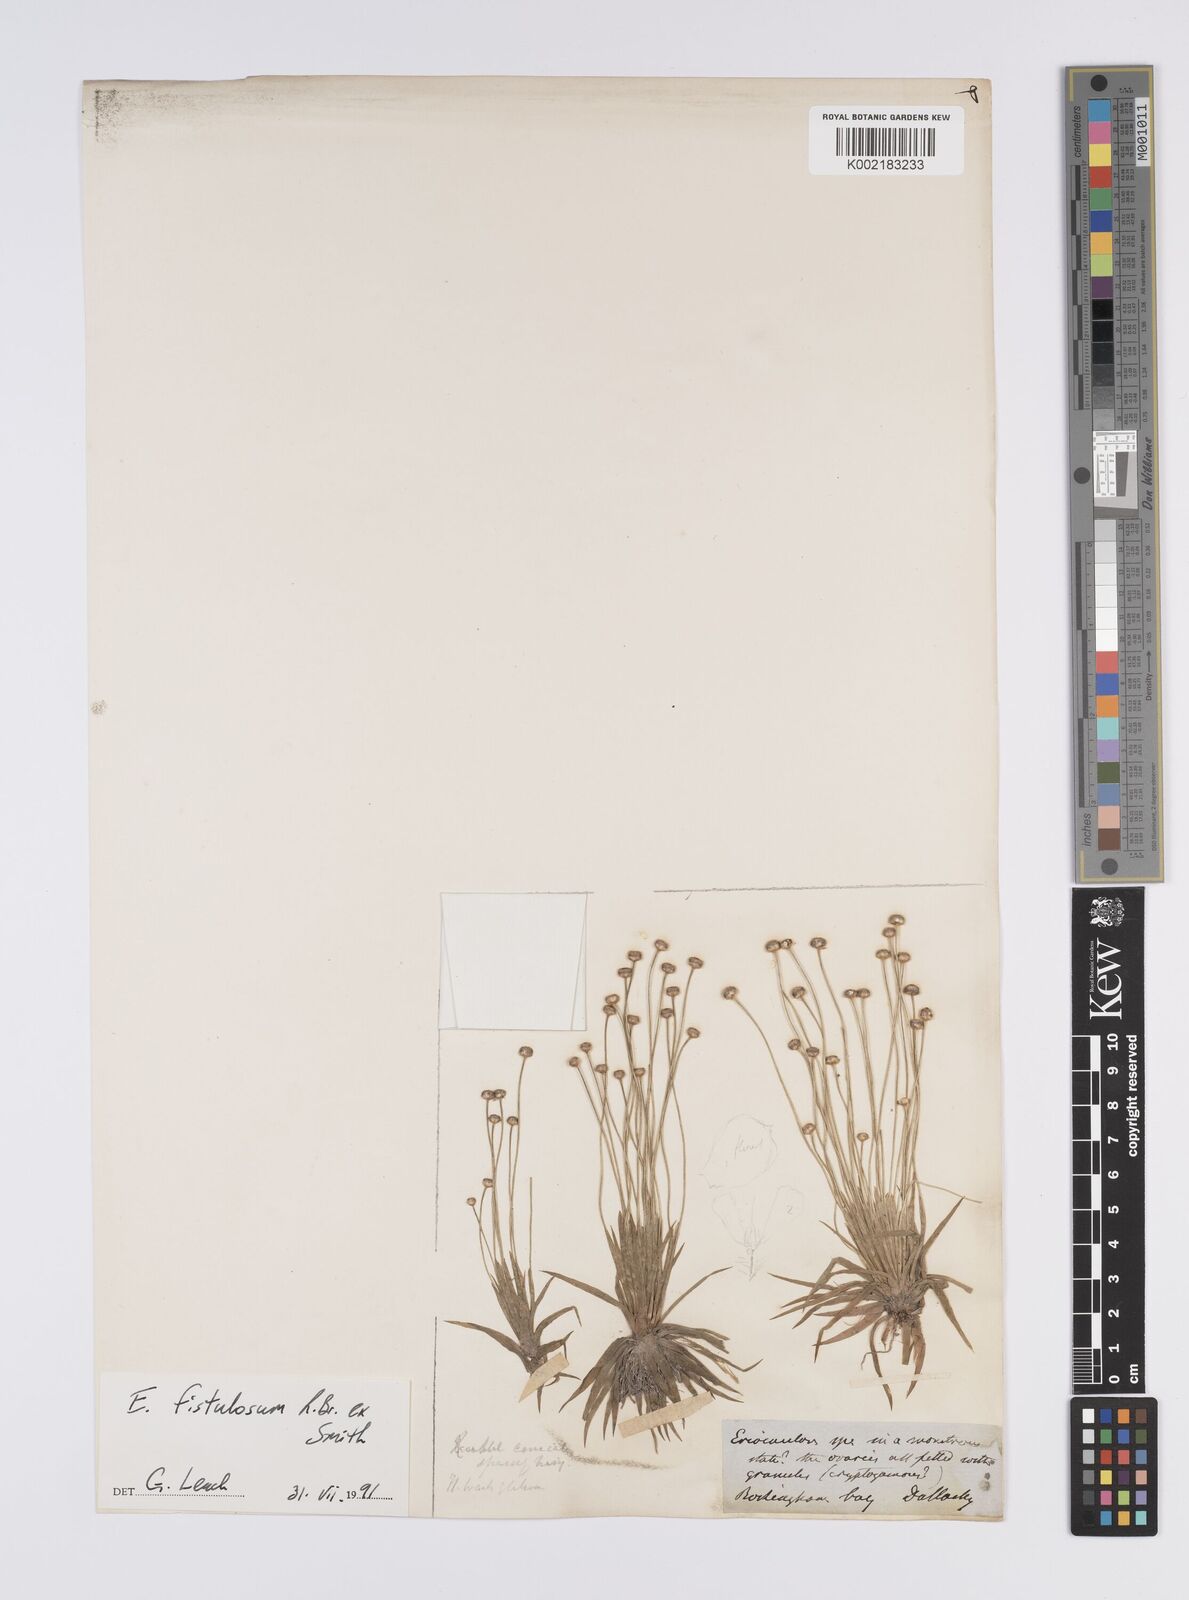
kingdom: Plantae
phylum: Tracheophyta
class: Liliopsida
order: Poales
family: Eriocaulaceae
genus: Eriocaulon
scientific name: Eriocaulon fistulosum
